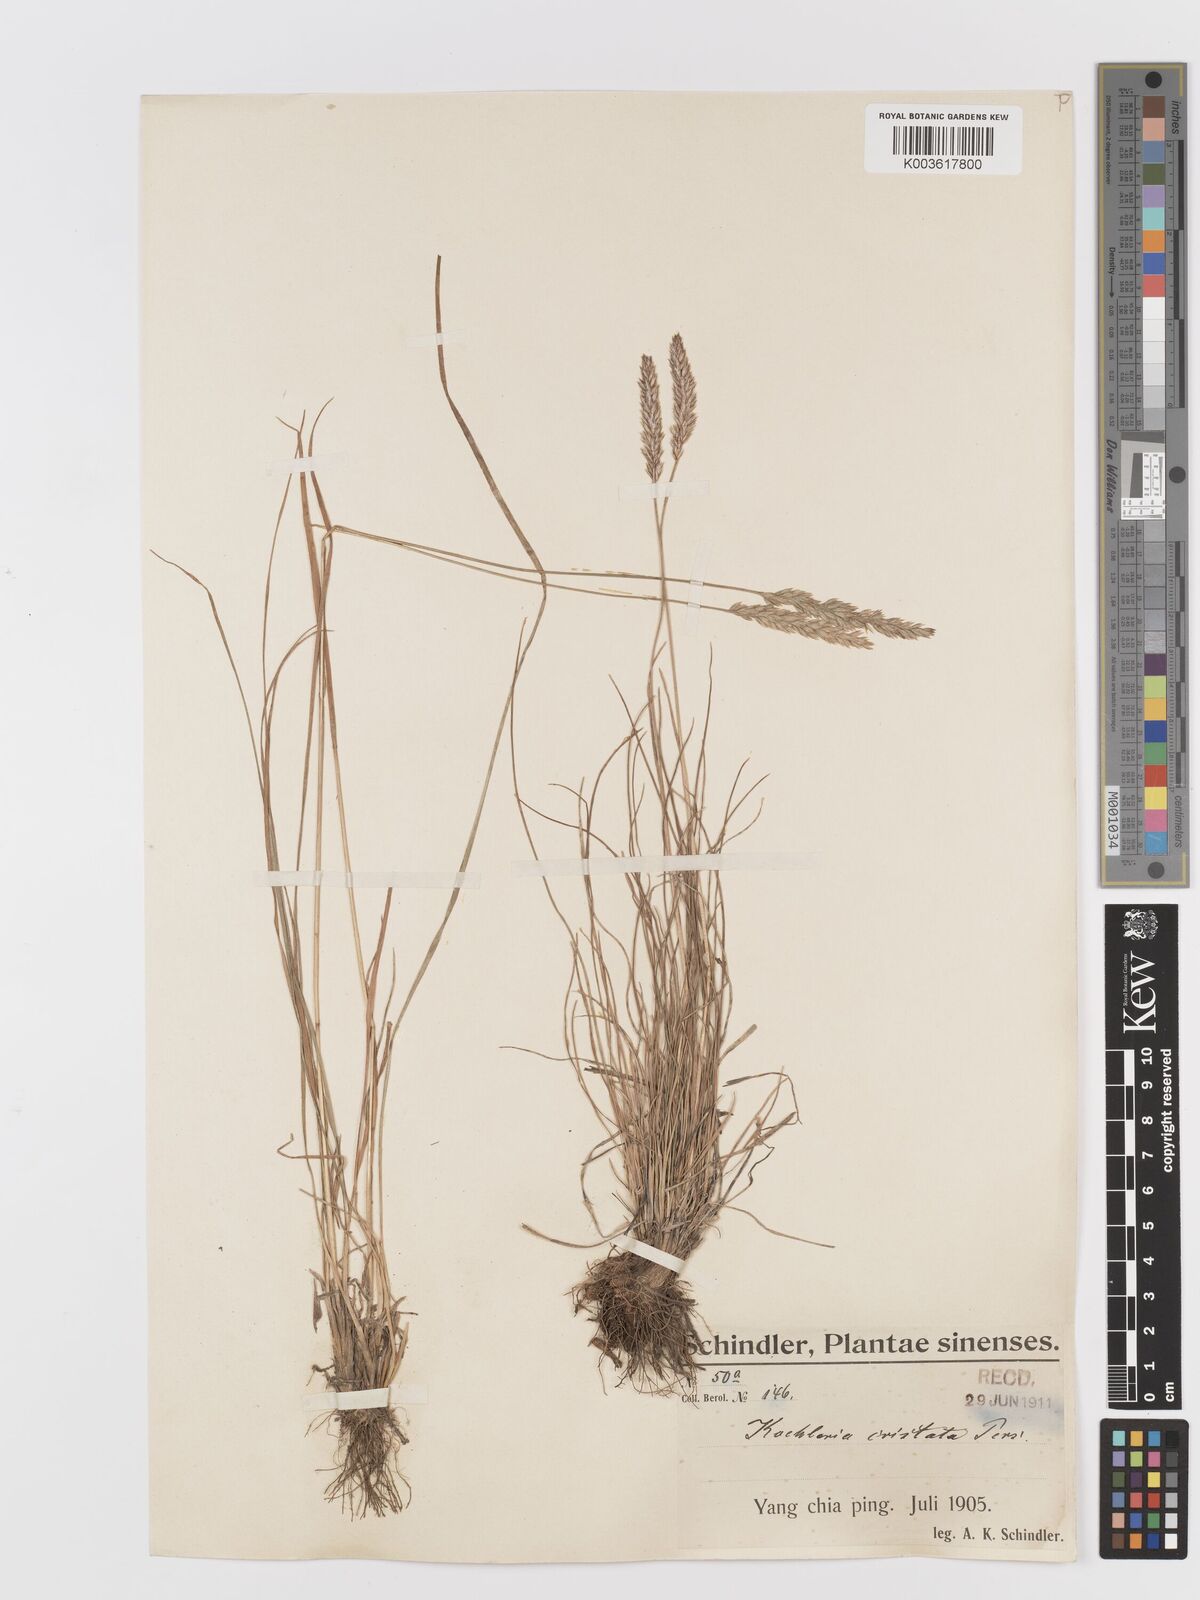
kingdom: Plantae
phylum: Tracheophyta
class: Liliopsida
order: Poales
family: Poaceae
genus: Koeleria
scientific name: Koeleria macrantha
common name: Crested hair-grass
